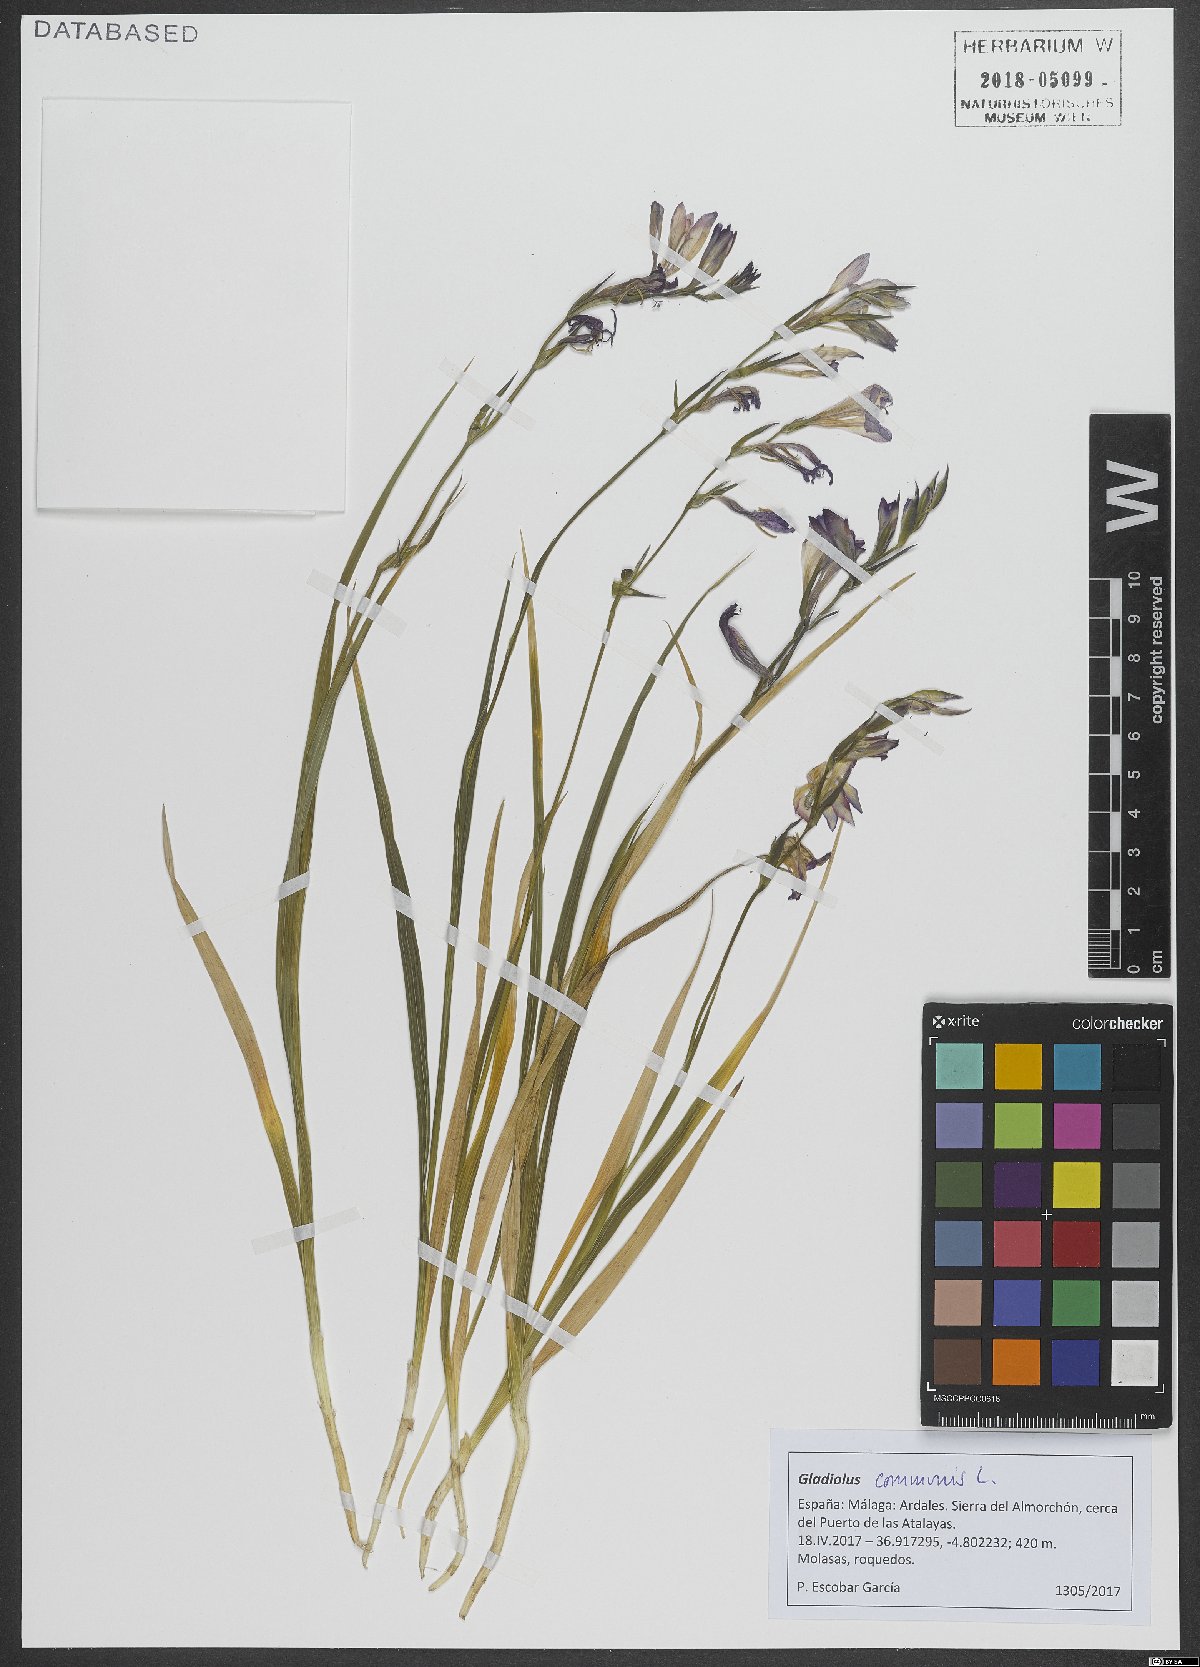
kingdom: Plantae
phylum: Tracheophyta
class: Liliopsida
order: Asparagales
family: Iridaceae
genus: Gladiolus
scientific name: Gladiolus communis
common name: Eastern gladiolus
